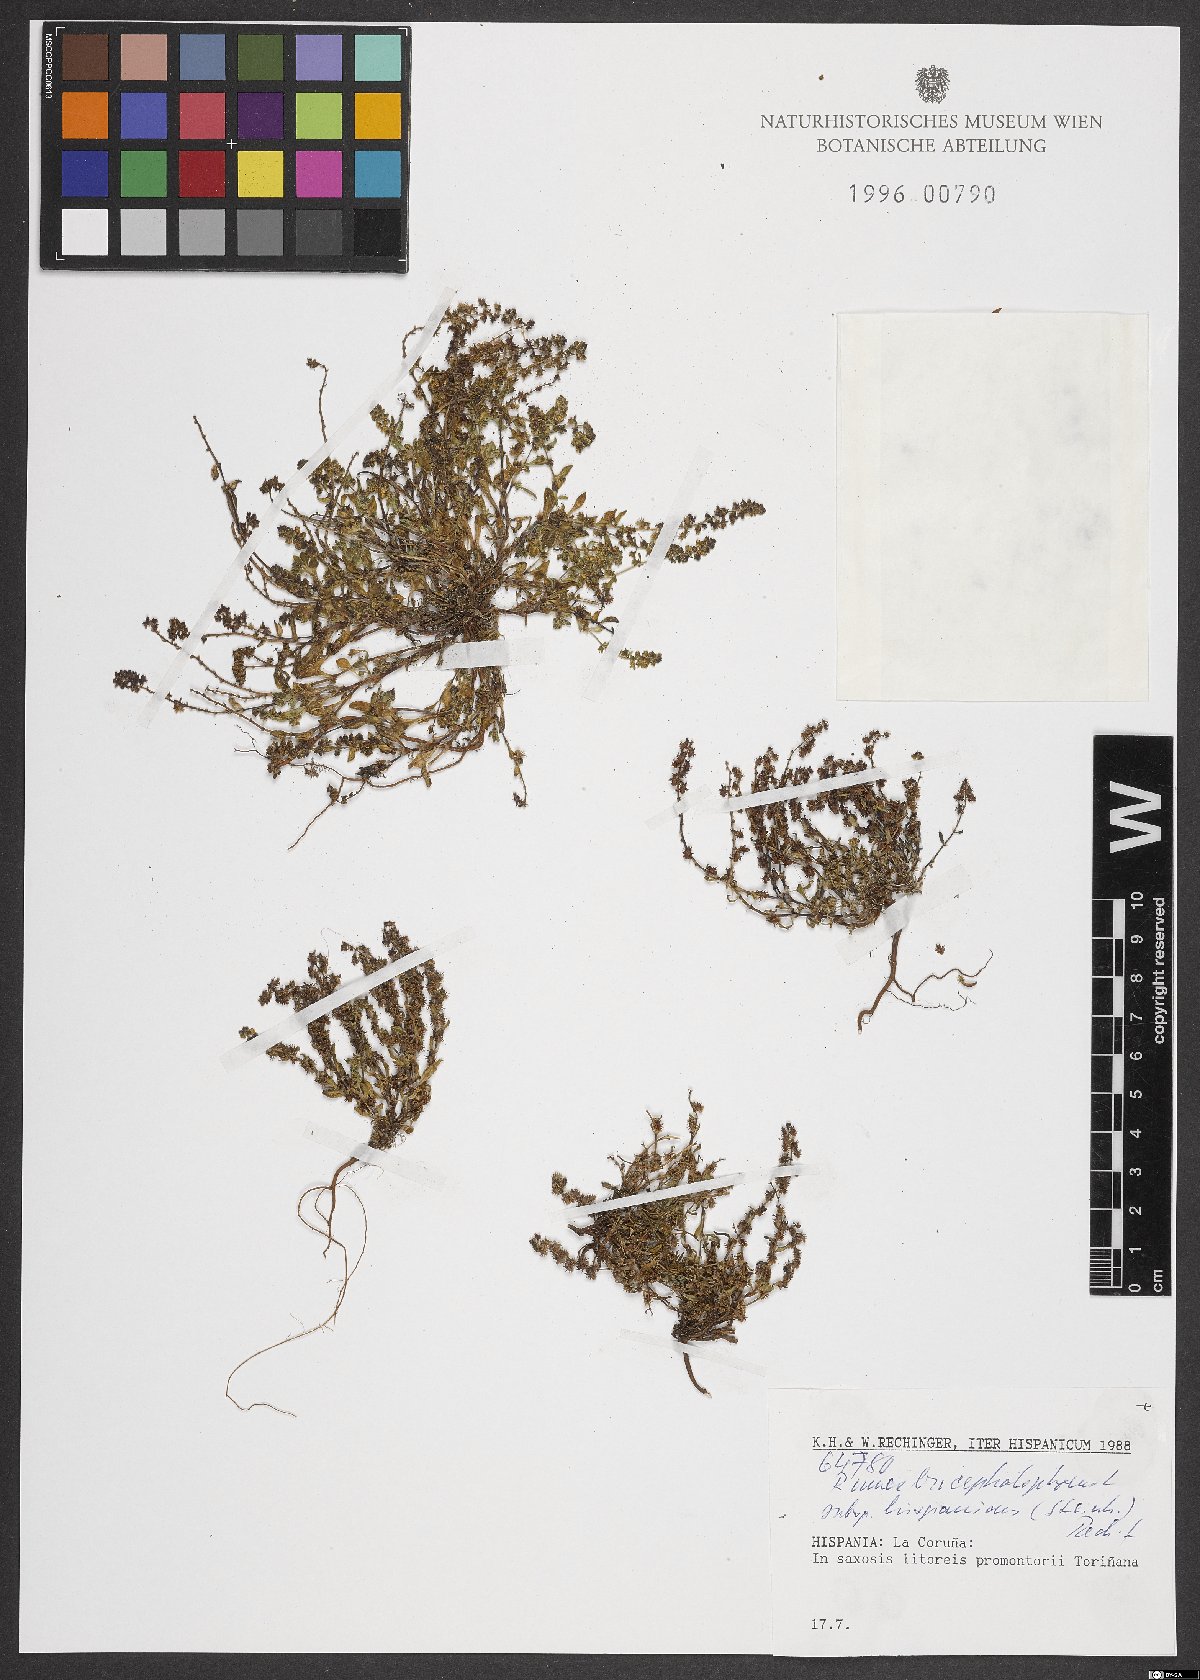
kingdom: Plantae
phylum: Tracheophyta
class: Magnoliopsida
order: Caryophyllales
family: Polygonaceae
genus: Rumex
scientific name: Rumex bucephalophorus
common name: Red dock
